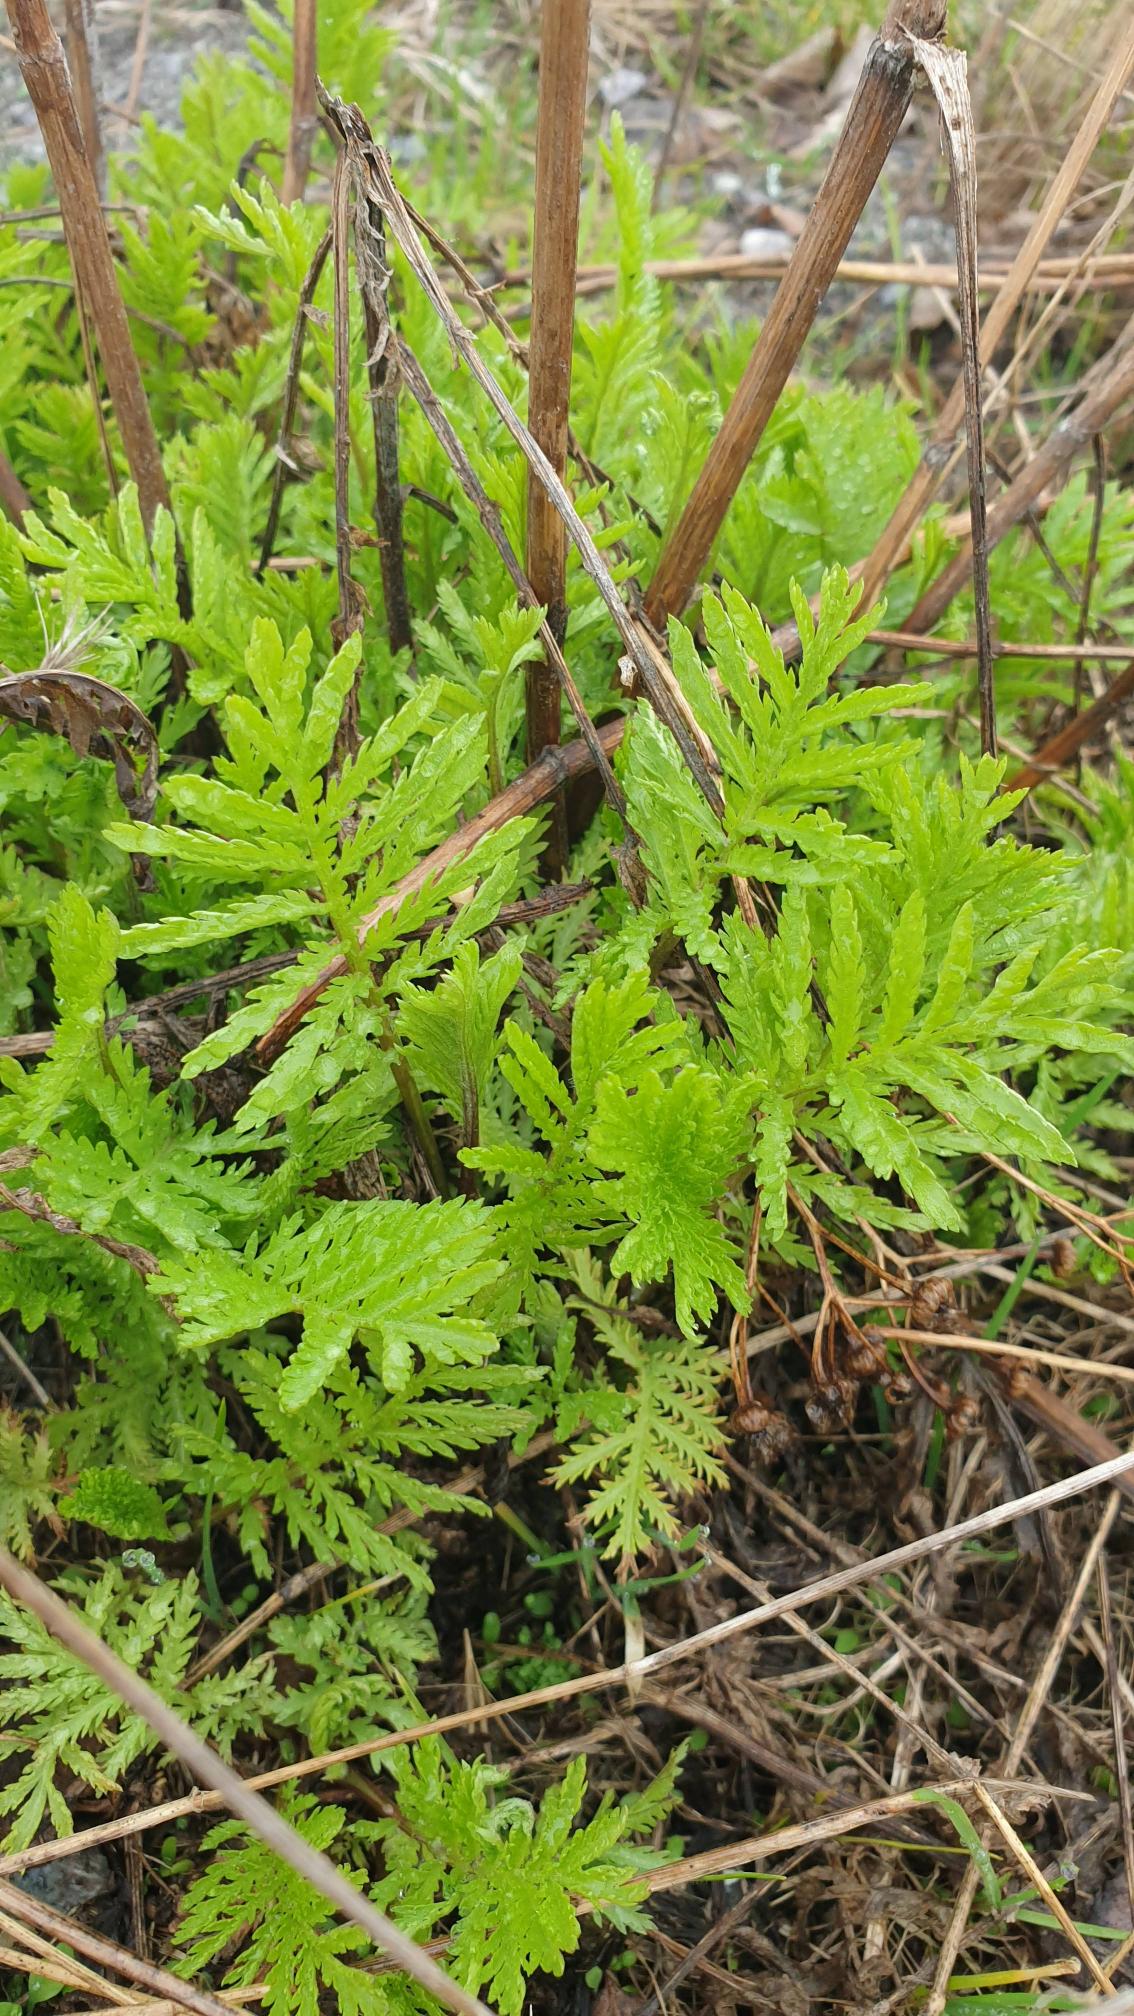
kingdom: Plantae
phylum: Tracheophyta
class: Magnoliopsida
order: Asterales
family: Asteraceae
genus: Tanacetum
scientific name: Tanacetum vulgare
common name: Rejnfan
